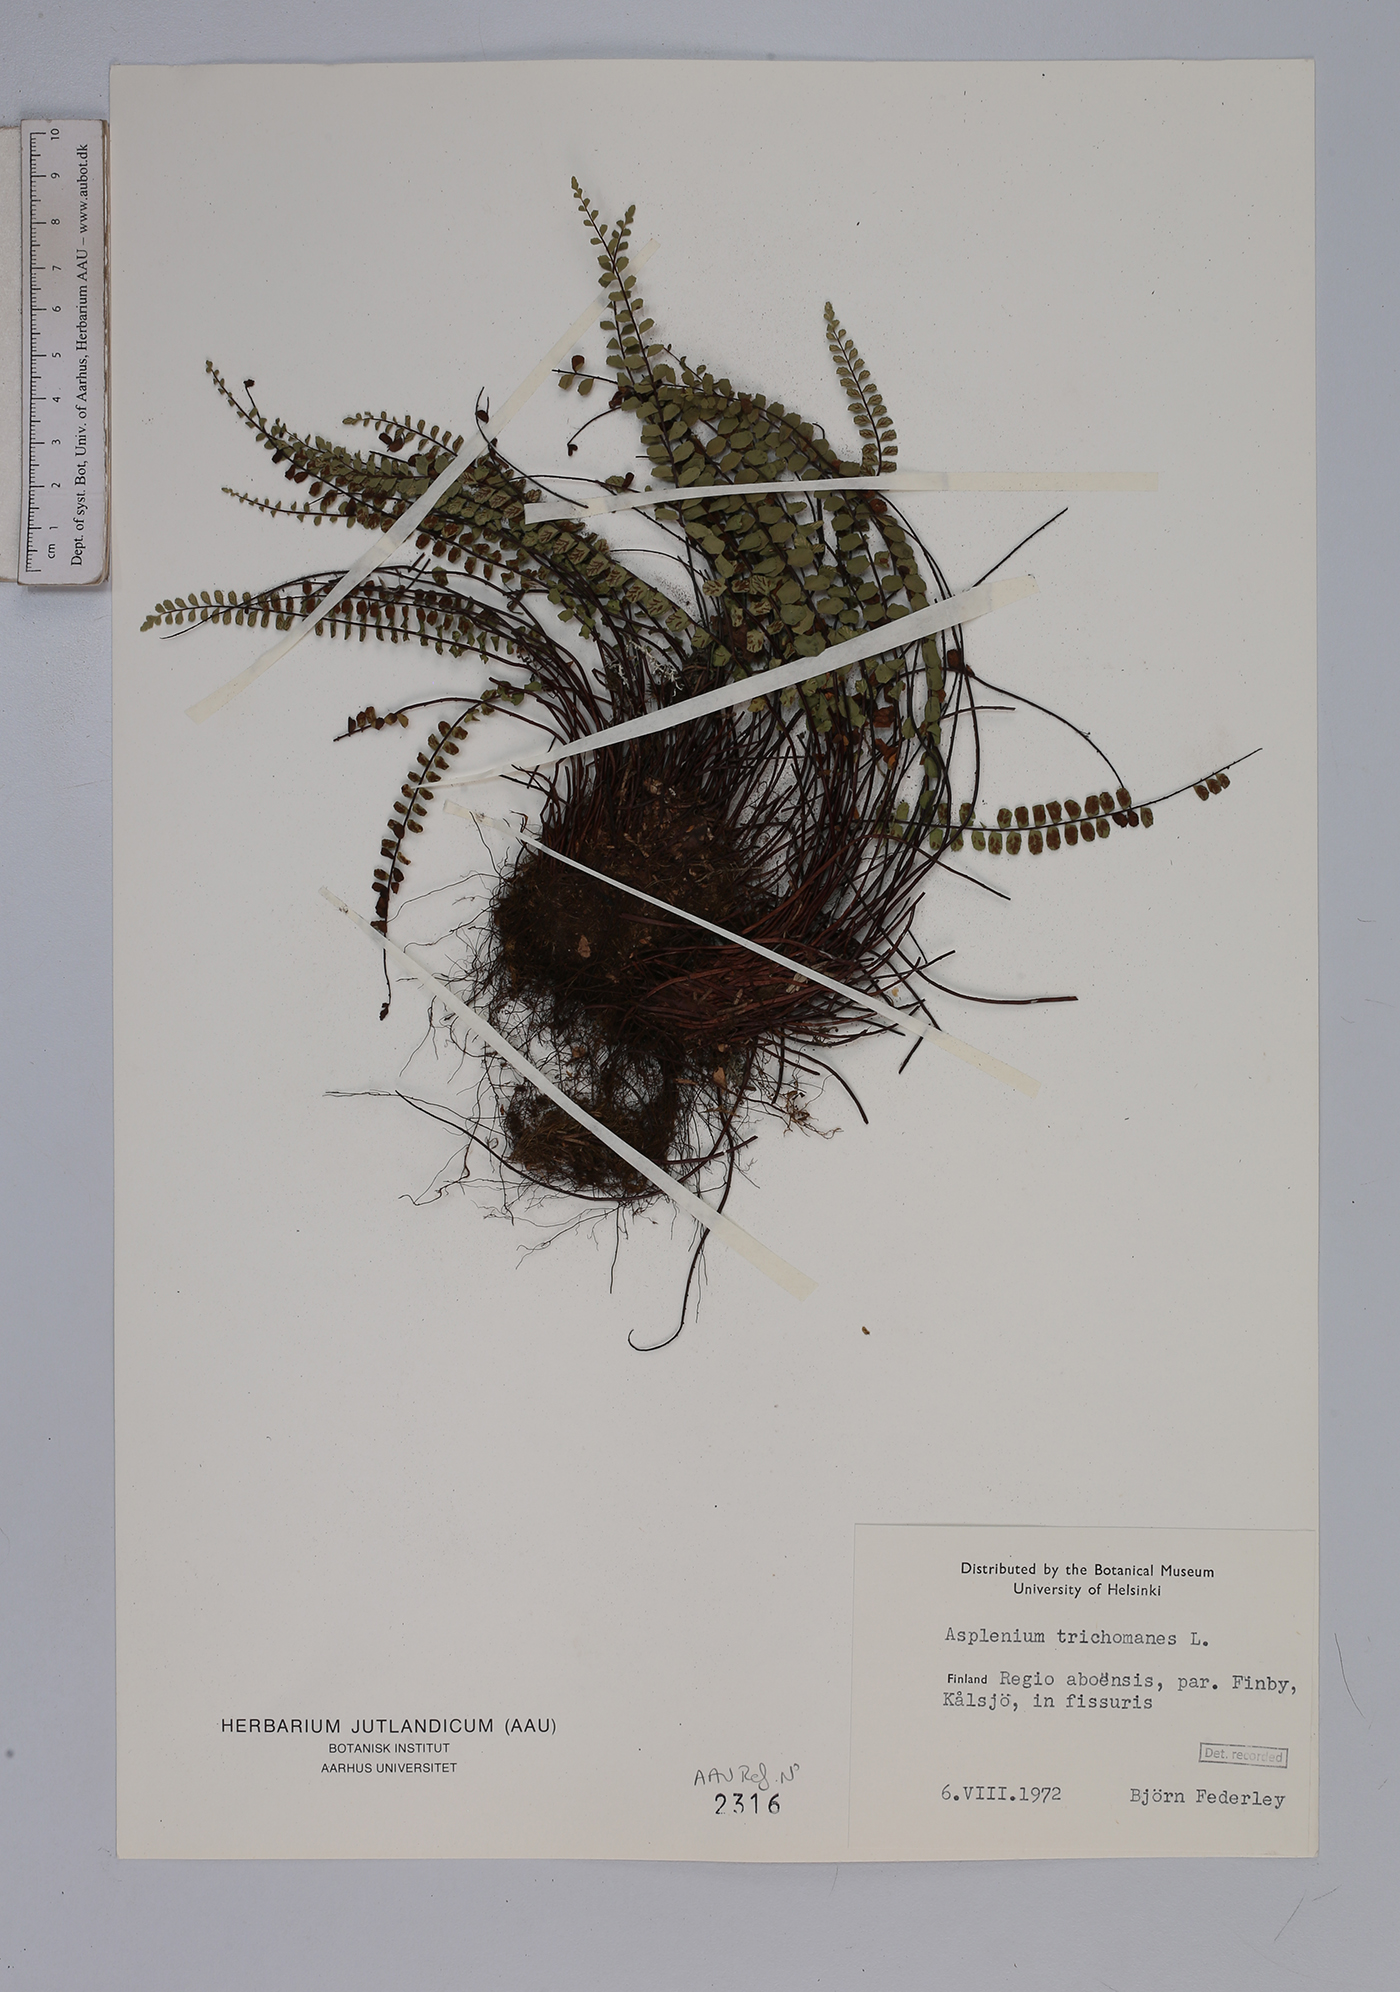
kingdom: Plantae
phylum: Tracheophyta
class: Polypodiopsida
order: Polypodiales
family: Aspleniaceae
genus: Asplenium
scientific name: Asplenium trichomanes
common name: Maidenhair spleenwort
